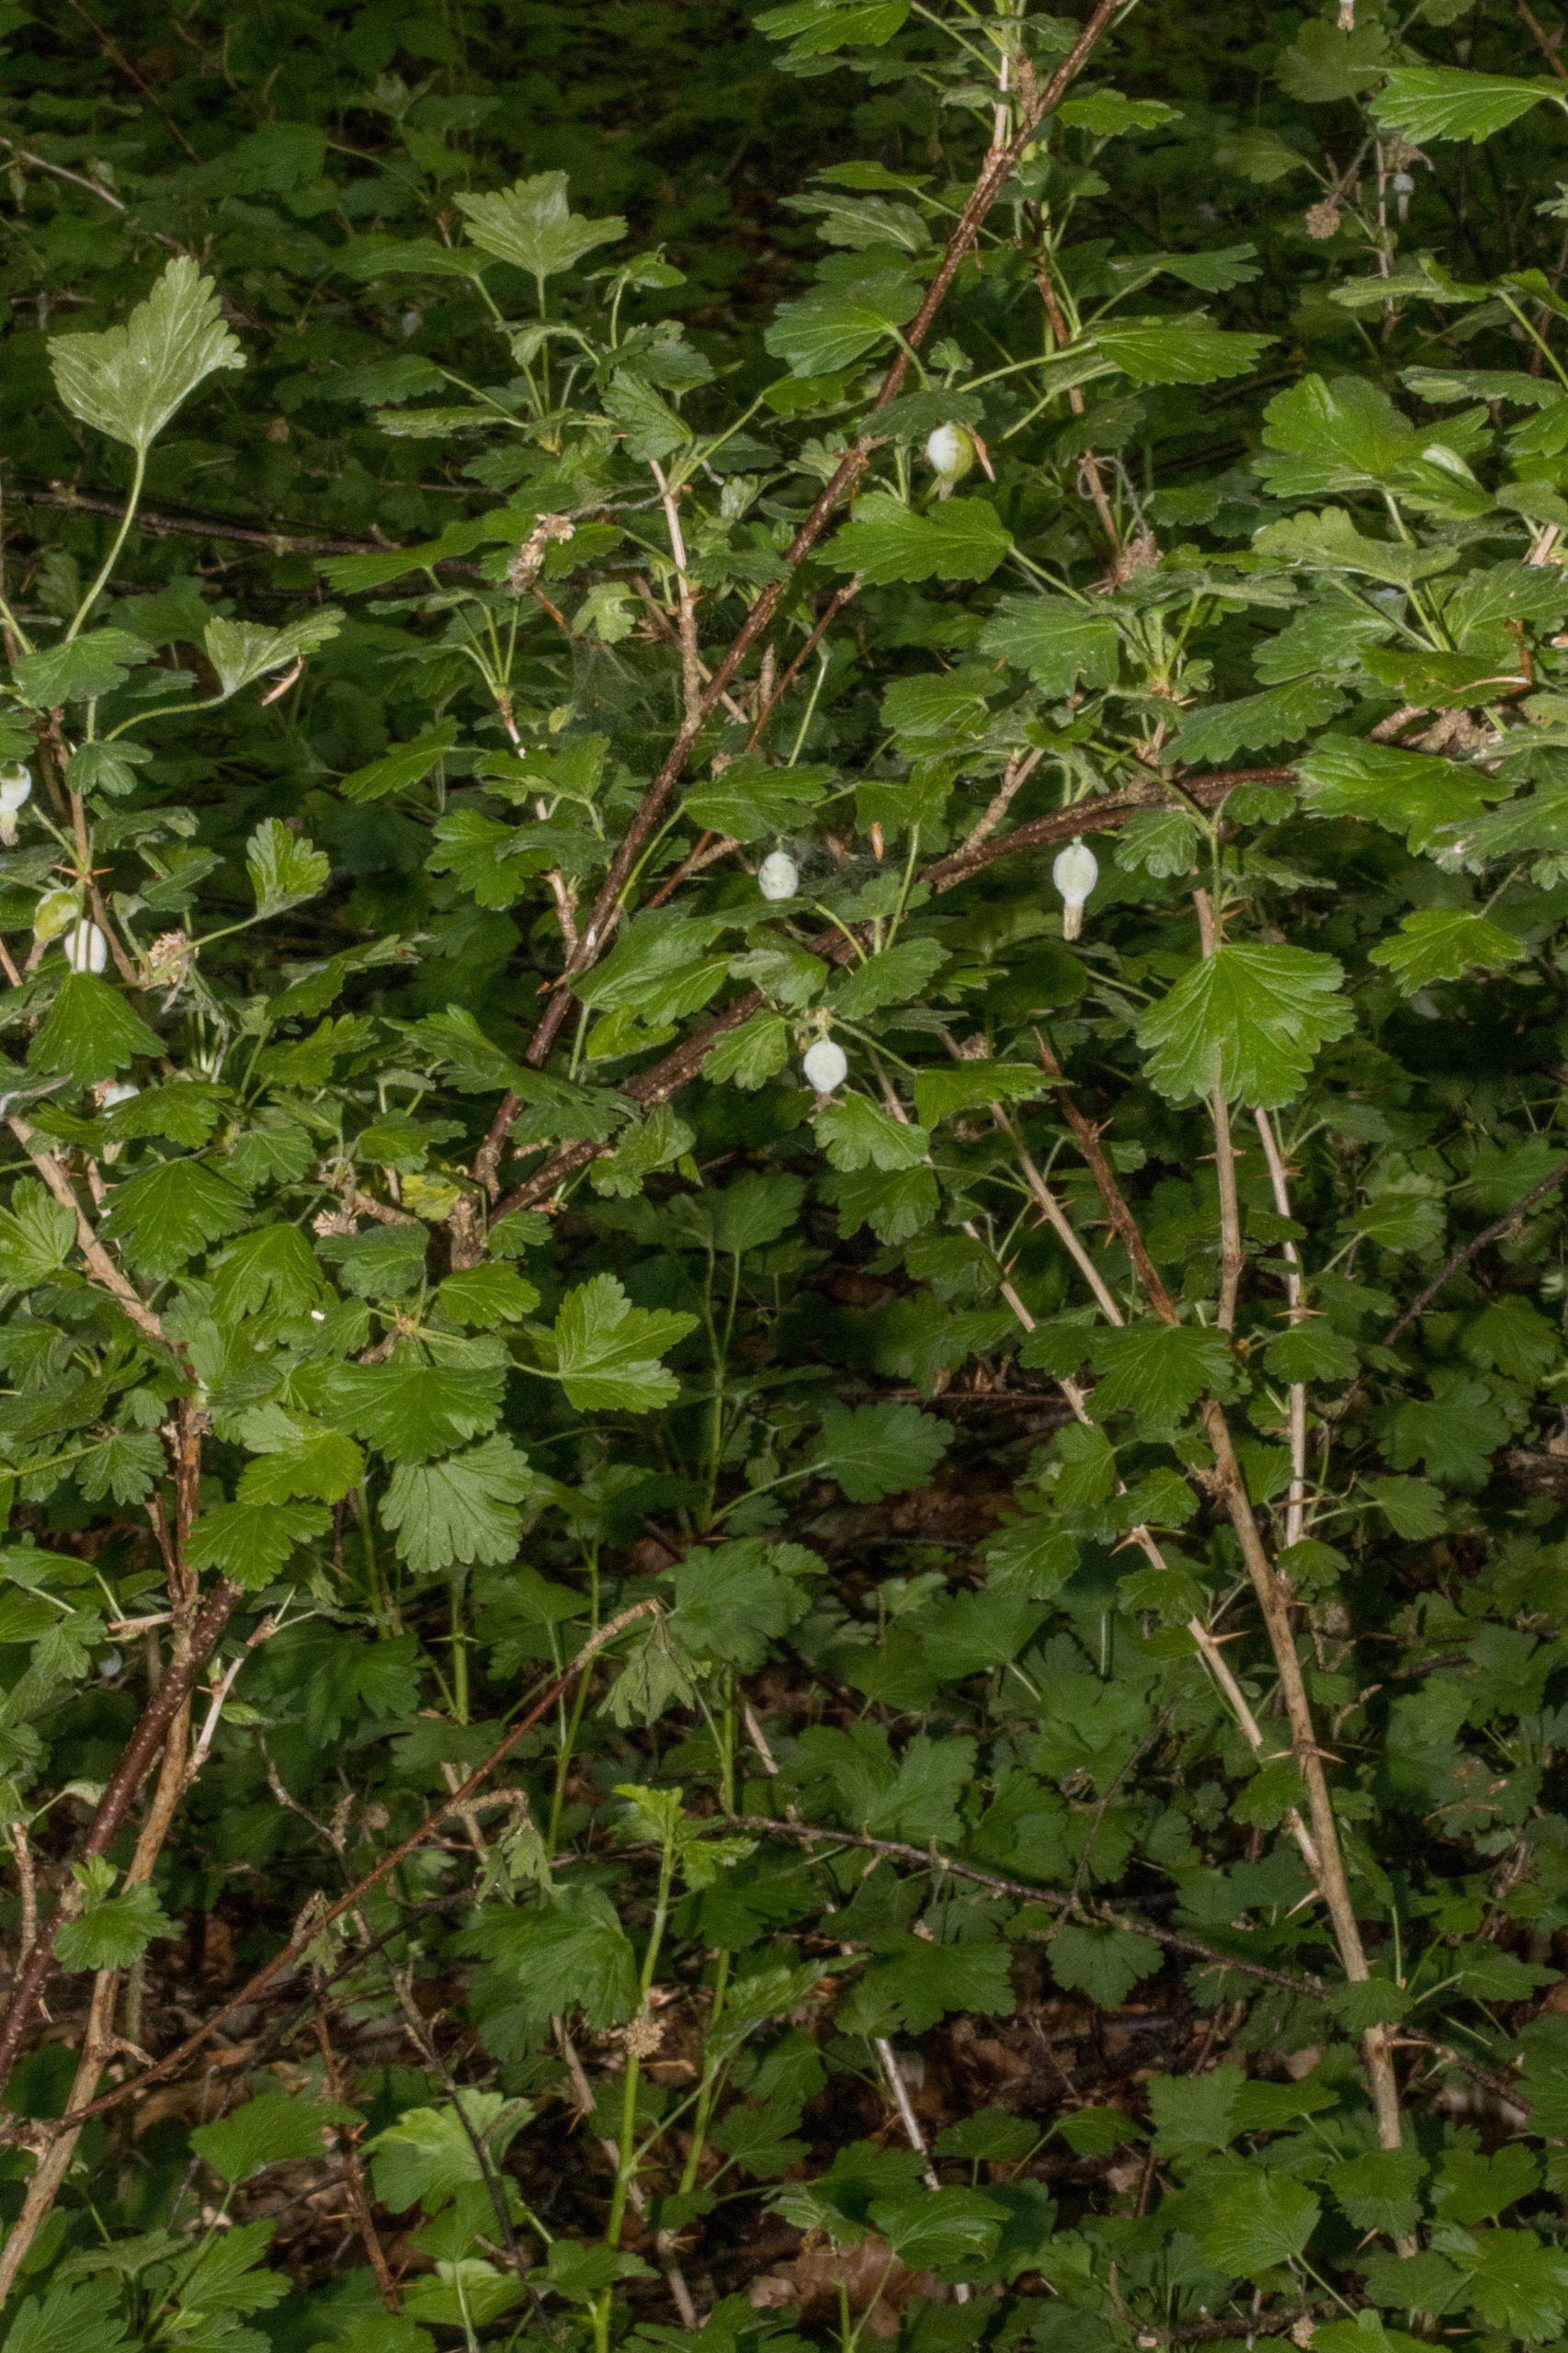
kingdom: Plantae
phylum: Tracheophyta
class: Magnoliopsida
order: Saxifragales
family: Grossulariaceae
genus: Ribes
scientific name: Ribes uva-crispa
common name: Stikkelsbær
